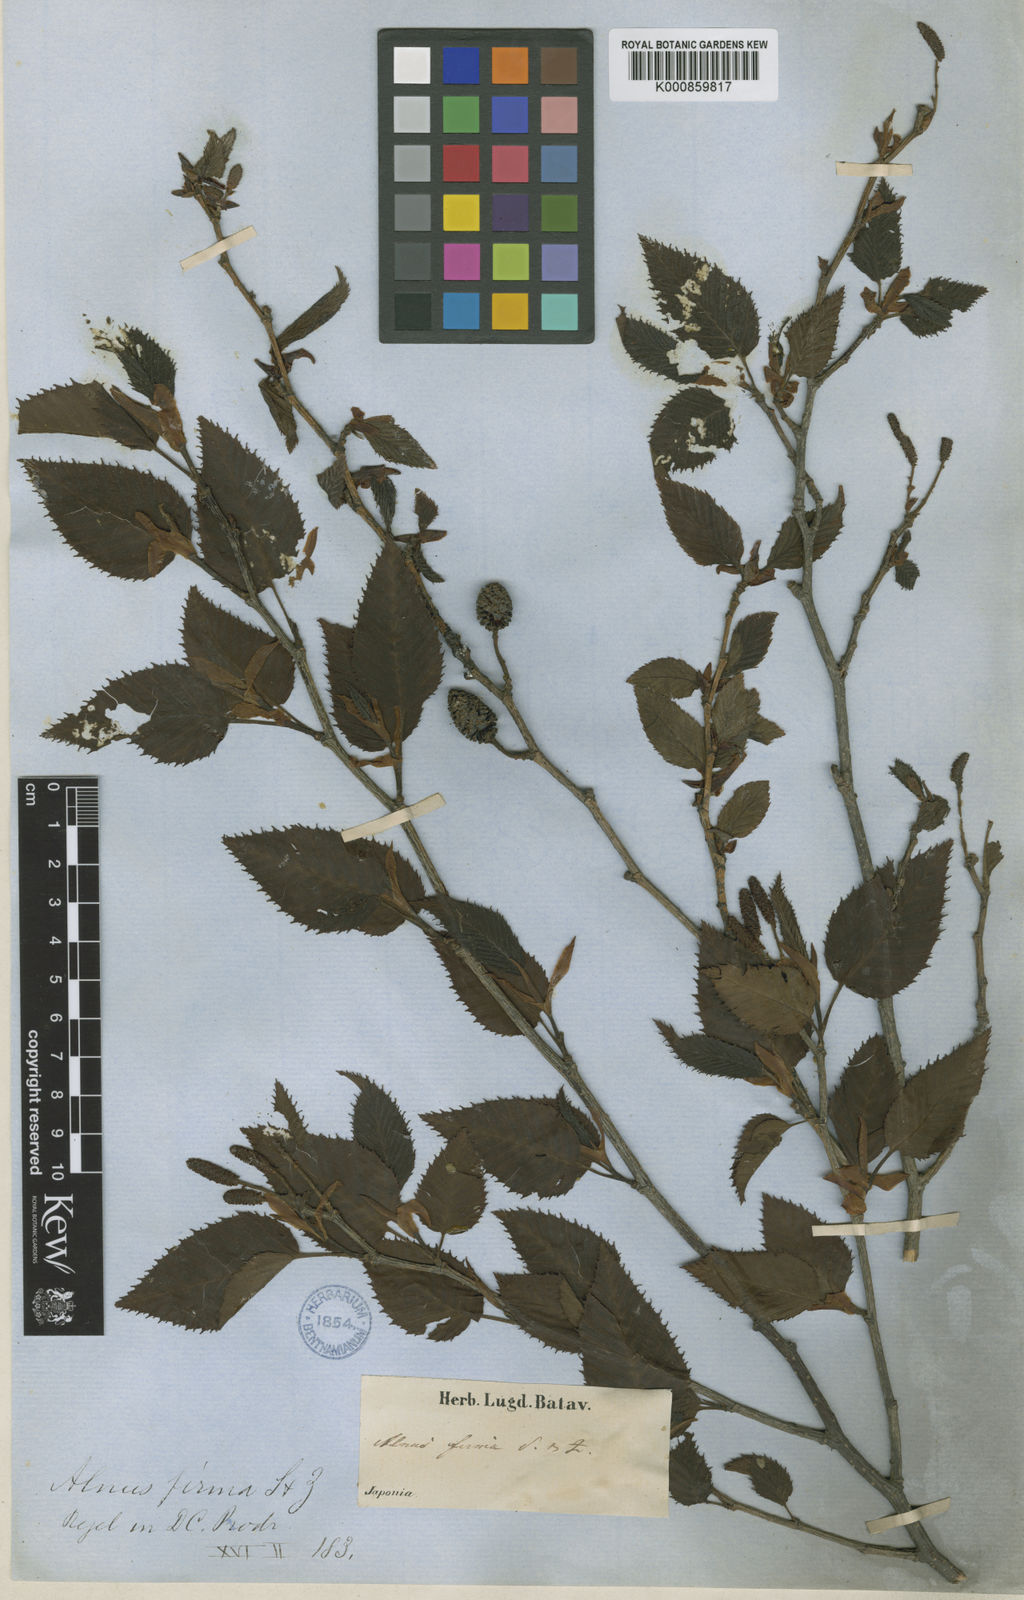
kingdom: Plantae
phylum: Tracheophyta
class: Magnoliopsida
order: Fagales
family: Betulaceae
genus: Alnus
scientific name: Alnus firma
